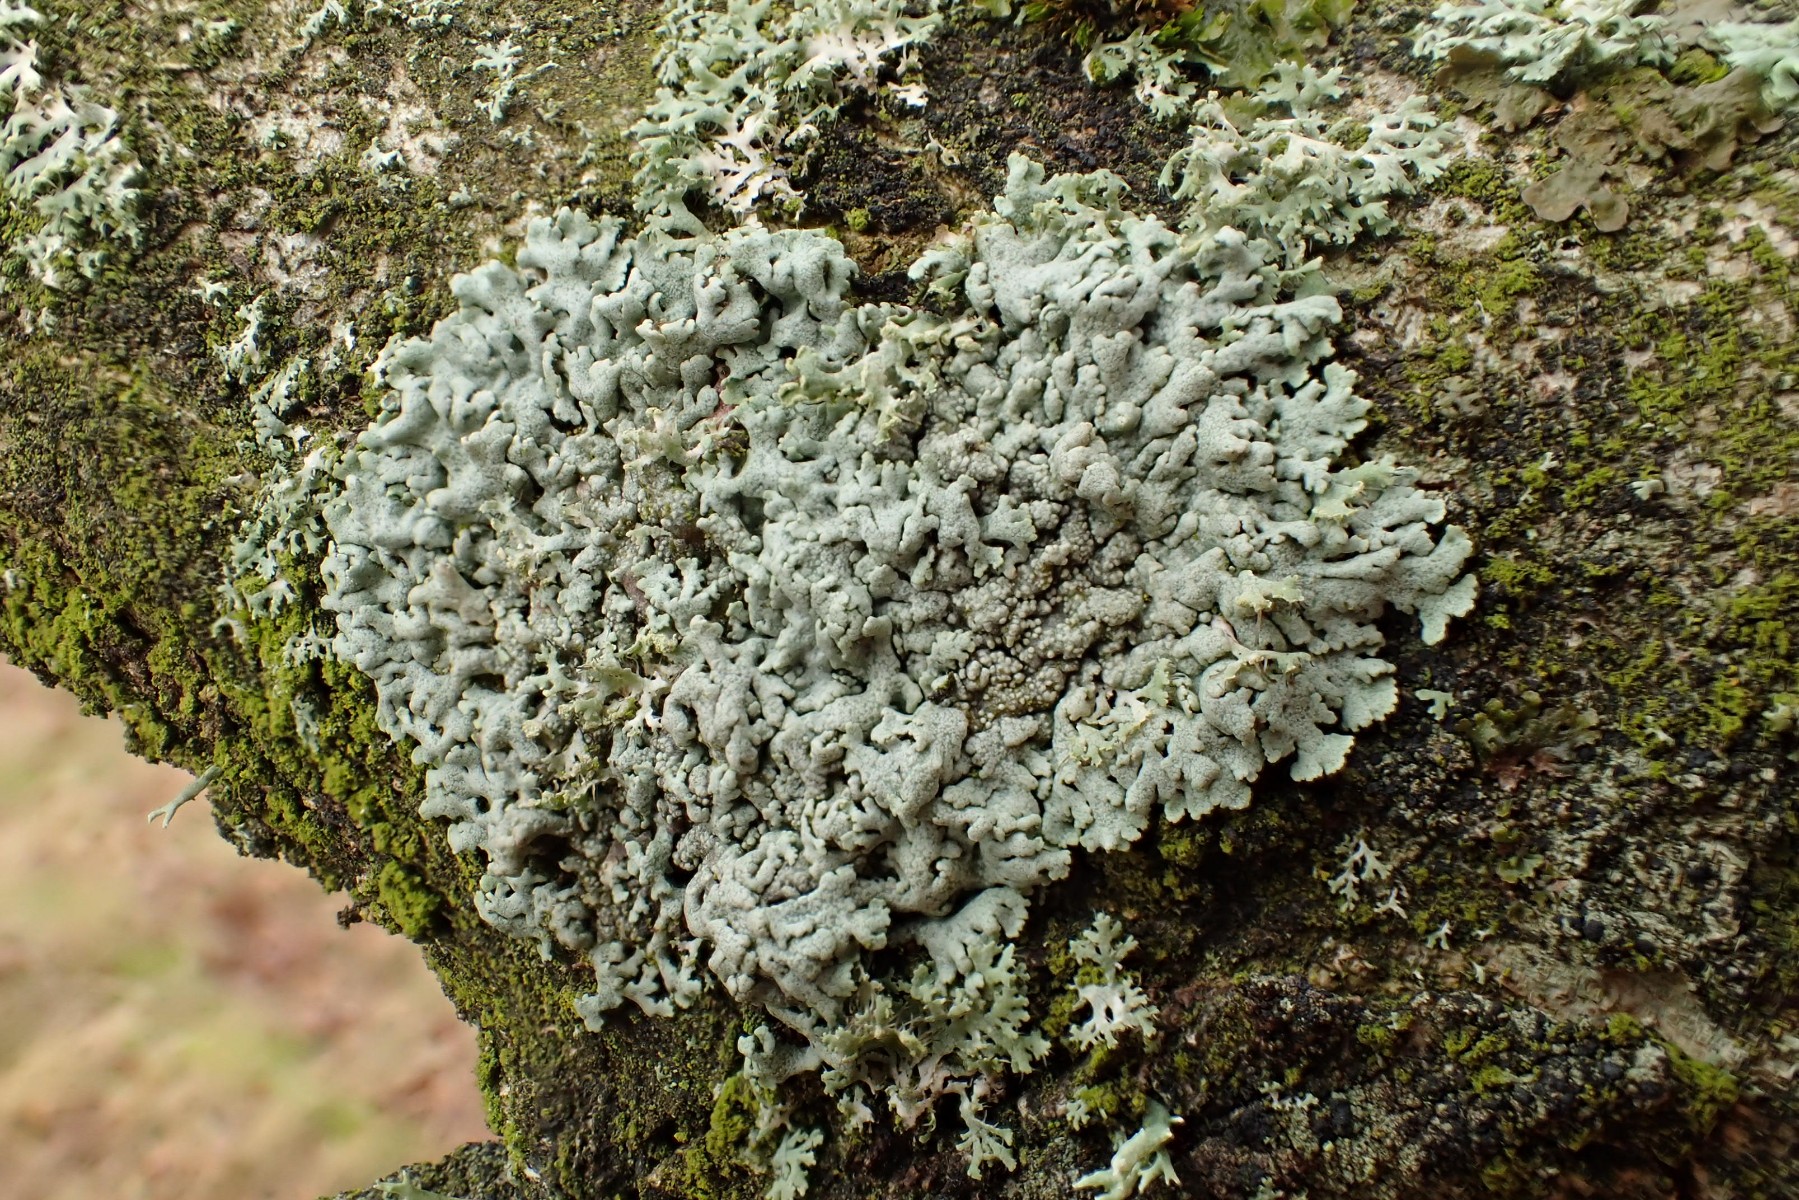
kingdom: Fungi
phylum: Ascomycota
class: Lecanoromycetes
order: Caliciales
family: Physciaceae
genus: Physcia
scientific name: Physcia aipolia
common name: hvidprikket rosetlav
